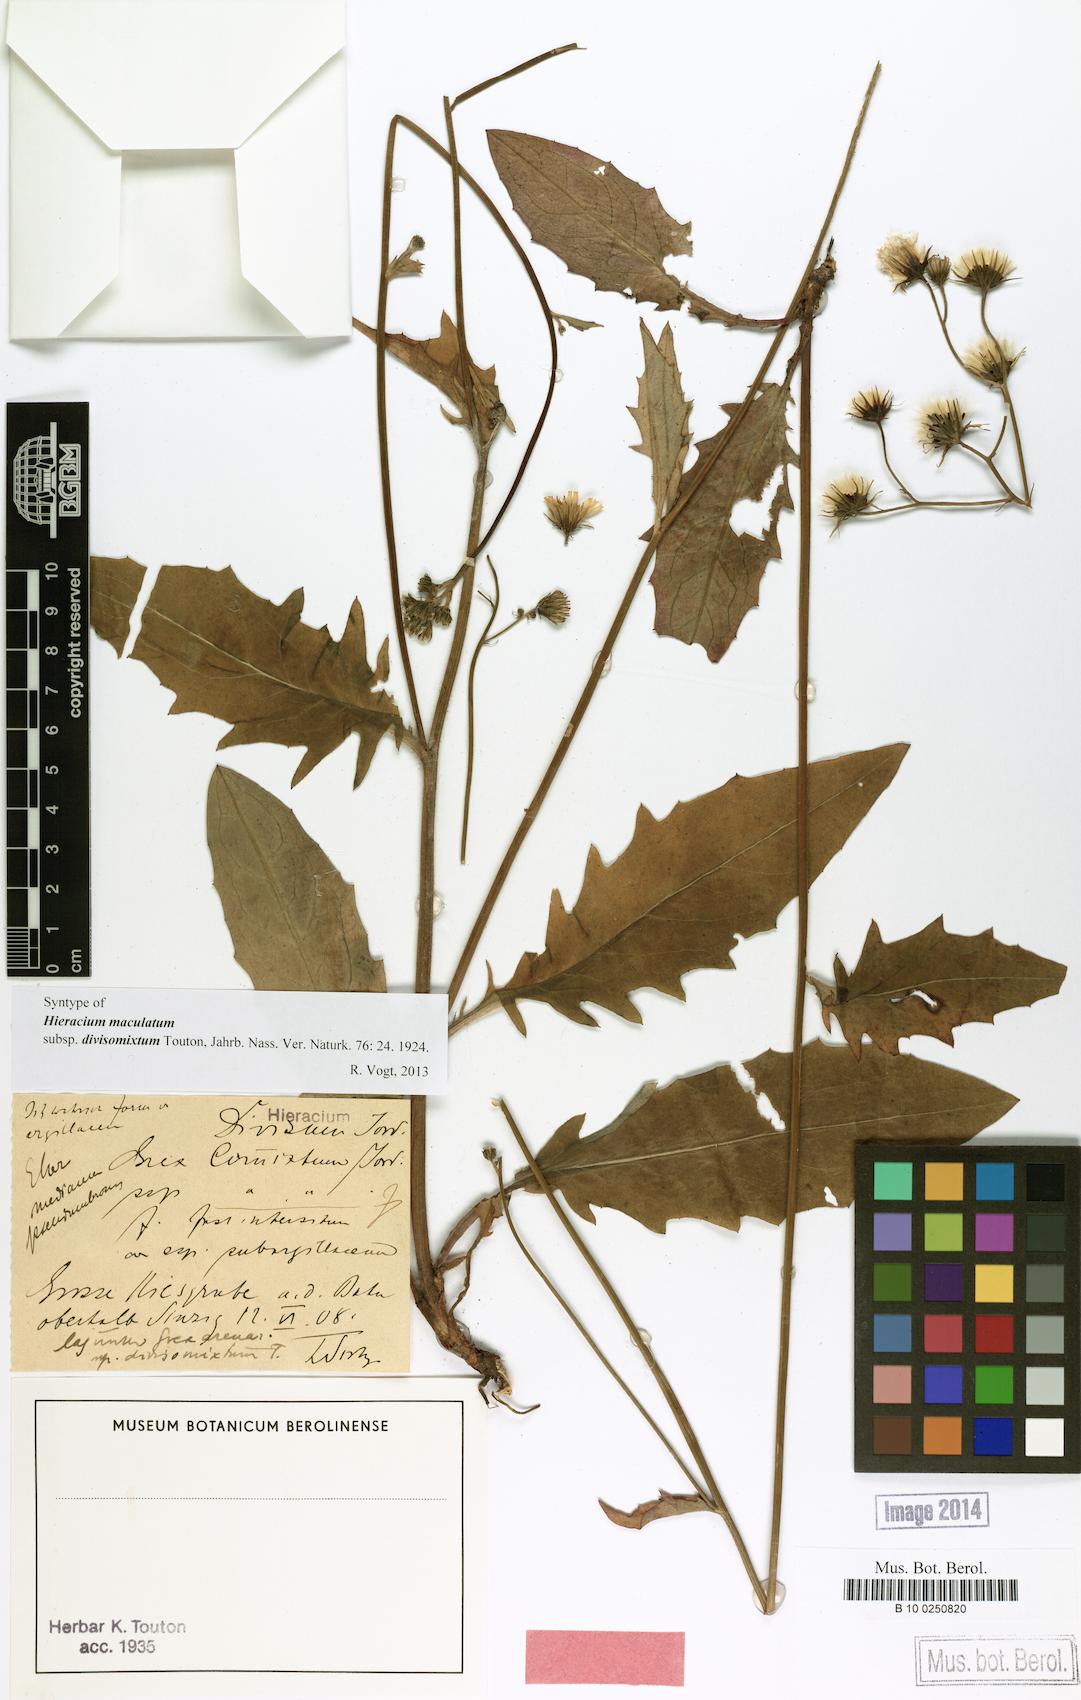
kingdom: Plantae
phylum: Tracheophyta
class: Magnoliopsida
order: Asterales
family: Asteraceae
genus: Hieracium
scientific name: Hieracium maculatum
